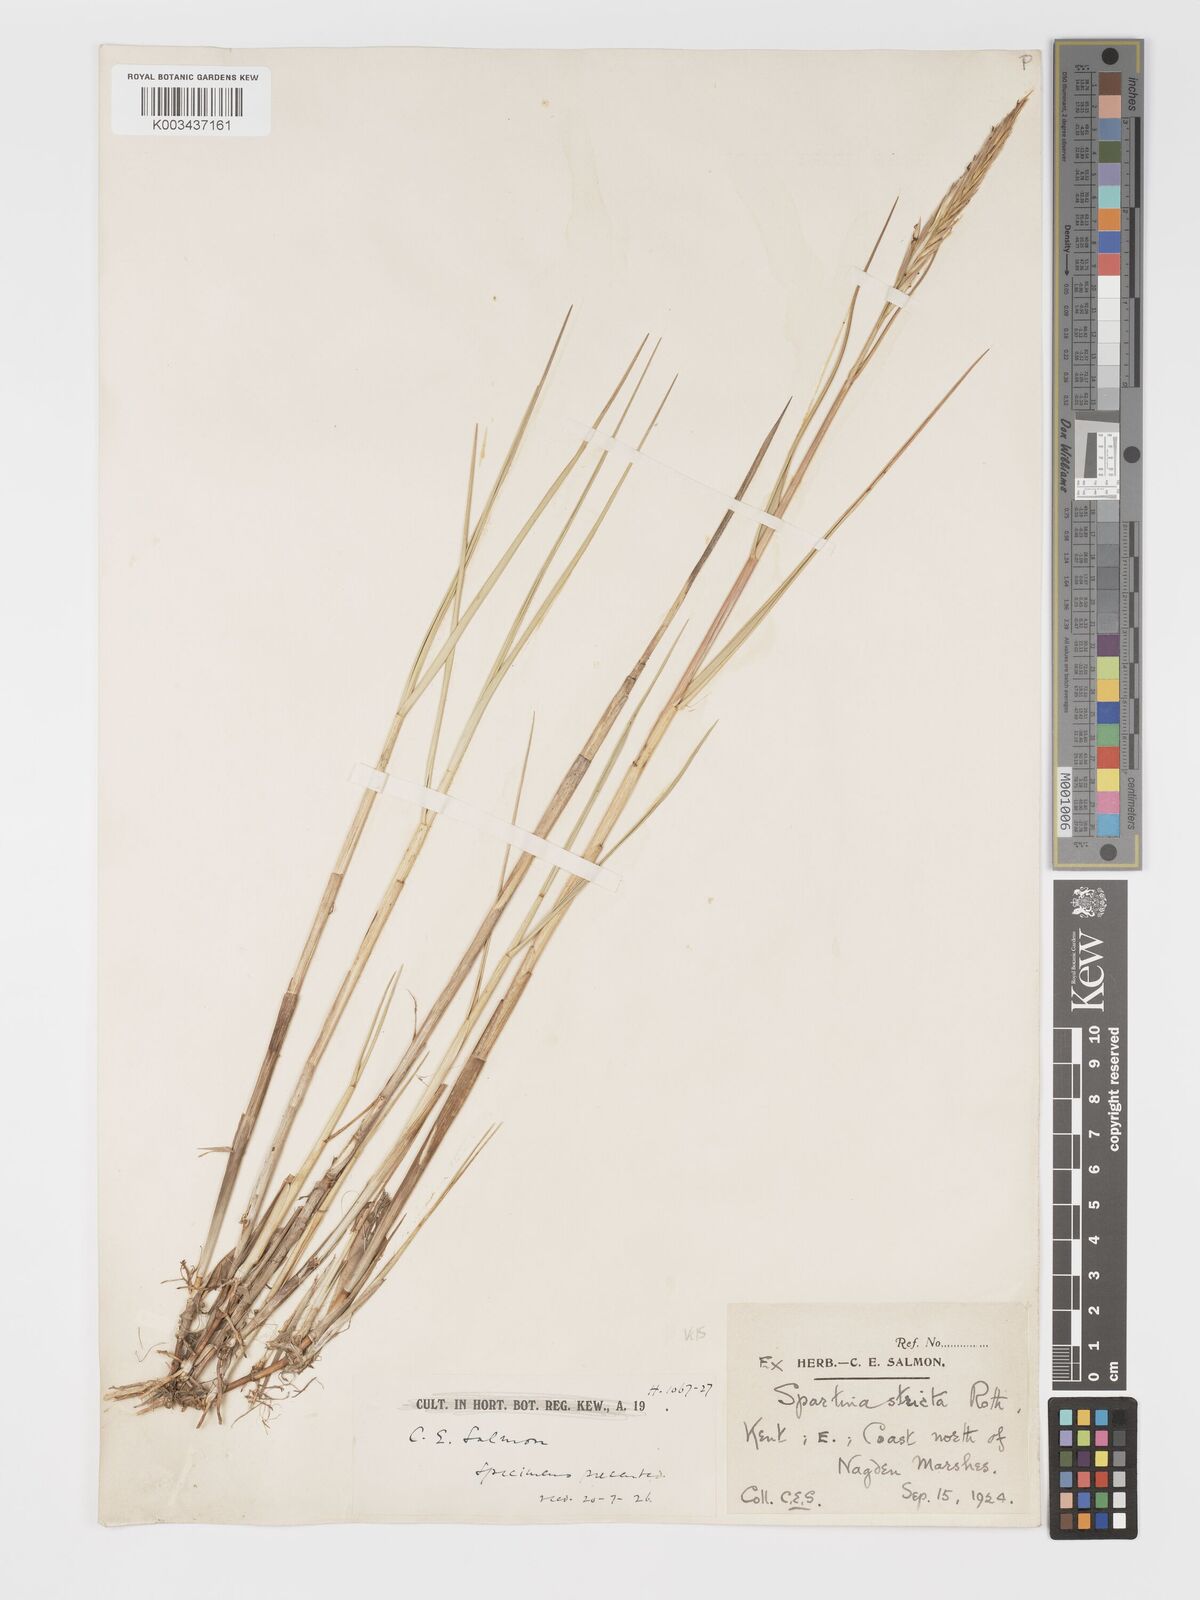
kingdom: Plantae
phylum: Tracheophyta
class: Liliopsida
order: Poales
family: Poaceae
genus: Sporobolus
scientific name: Sporobolus maritimus
